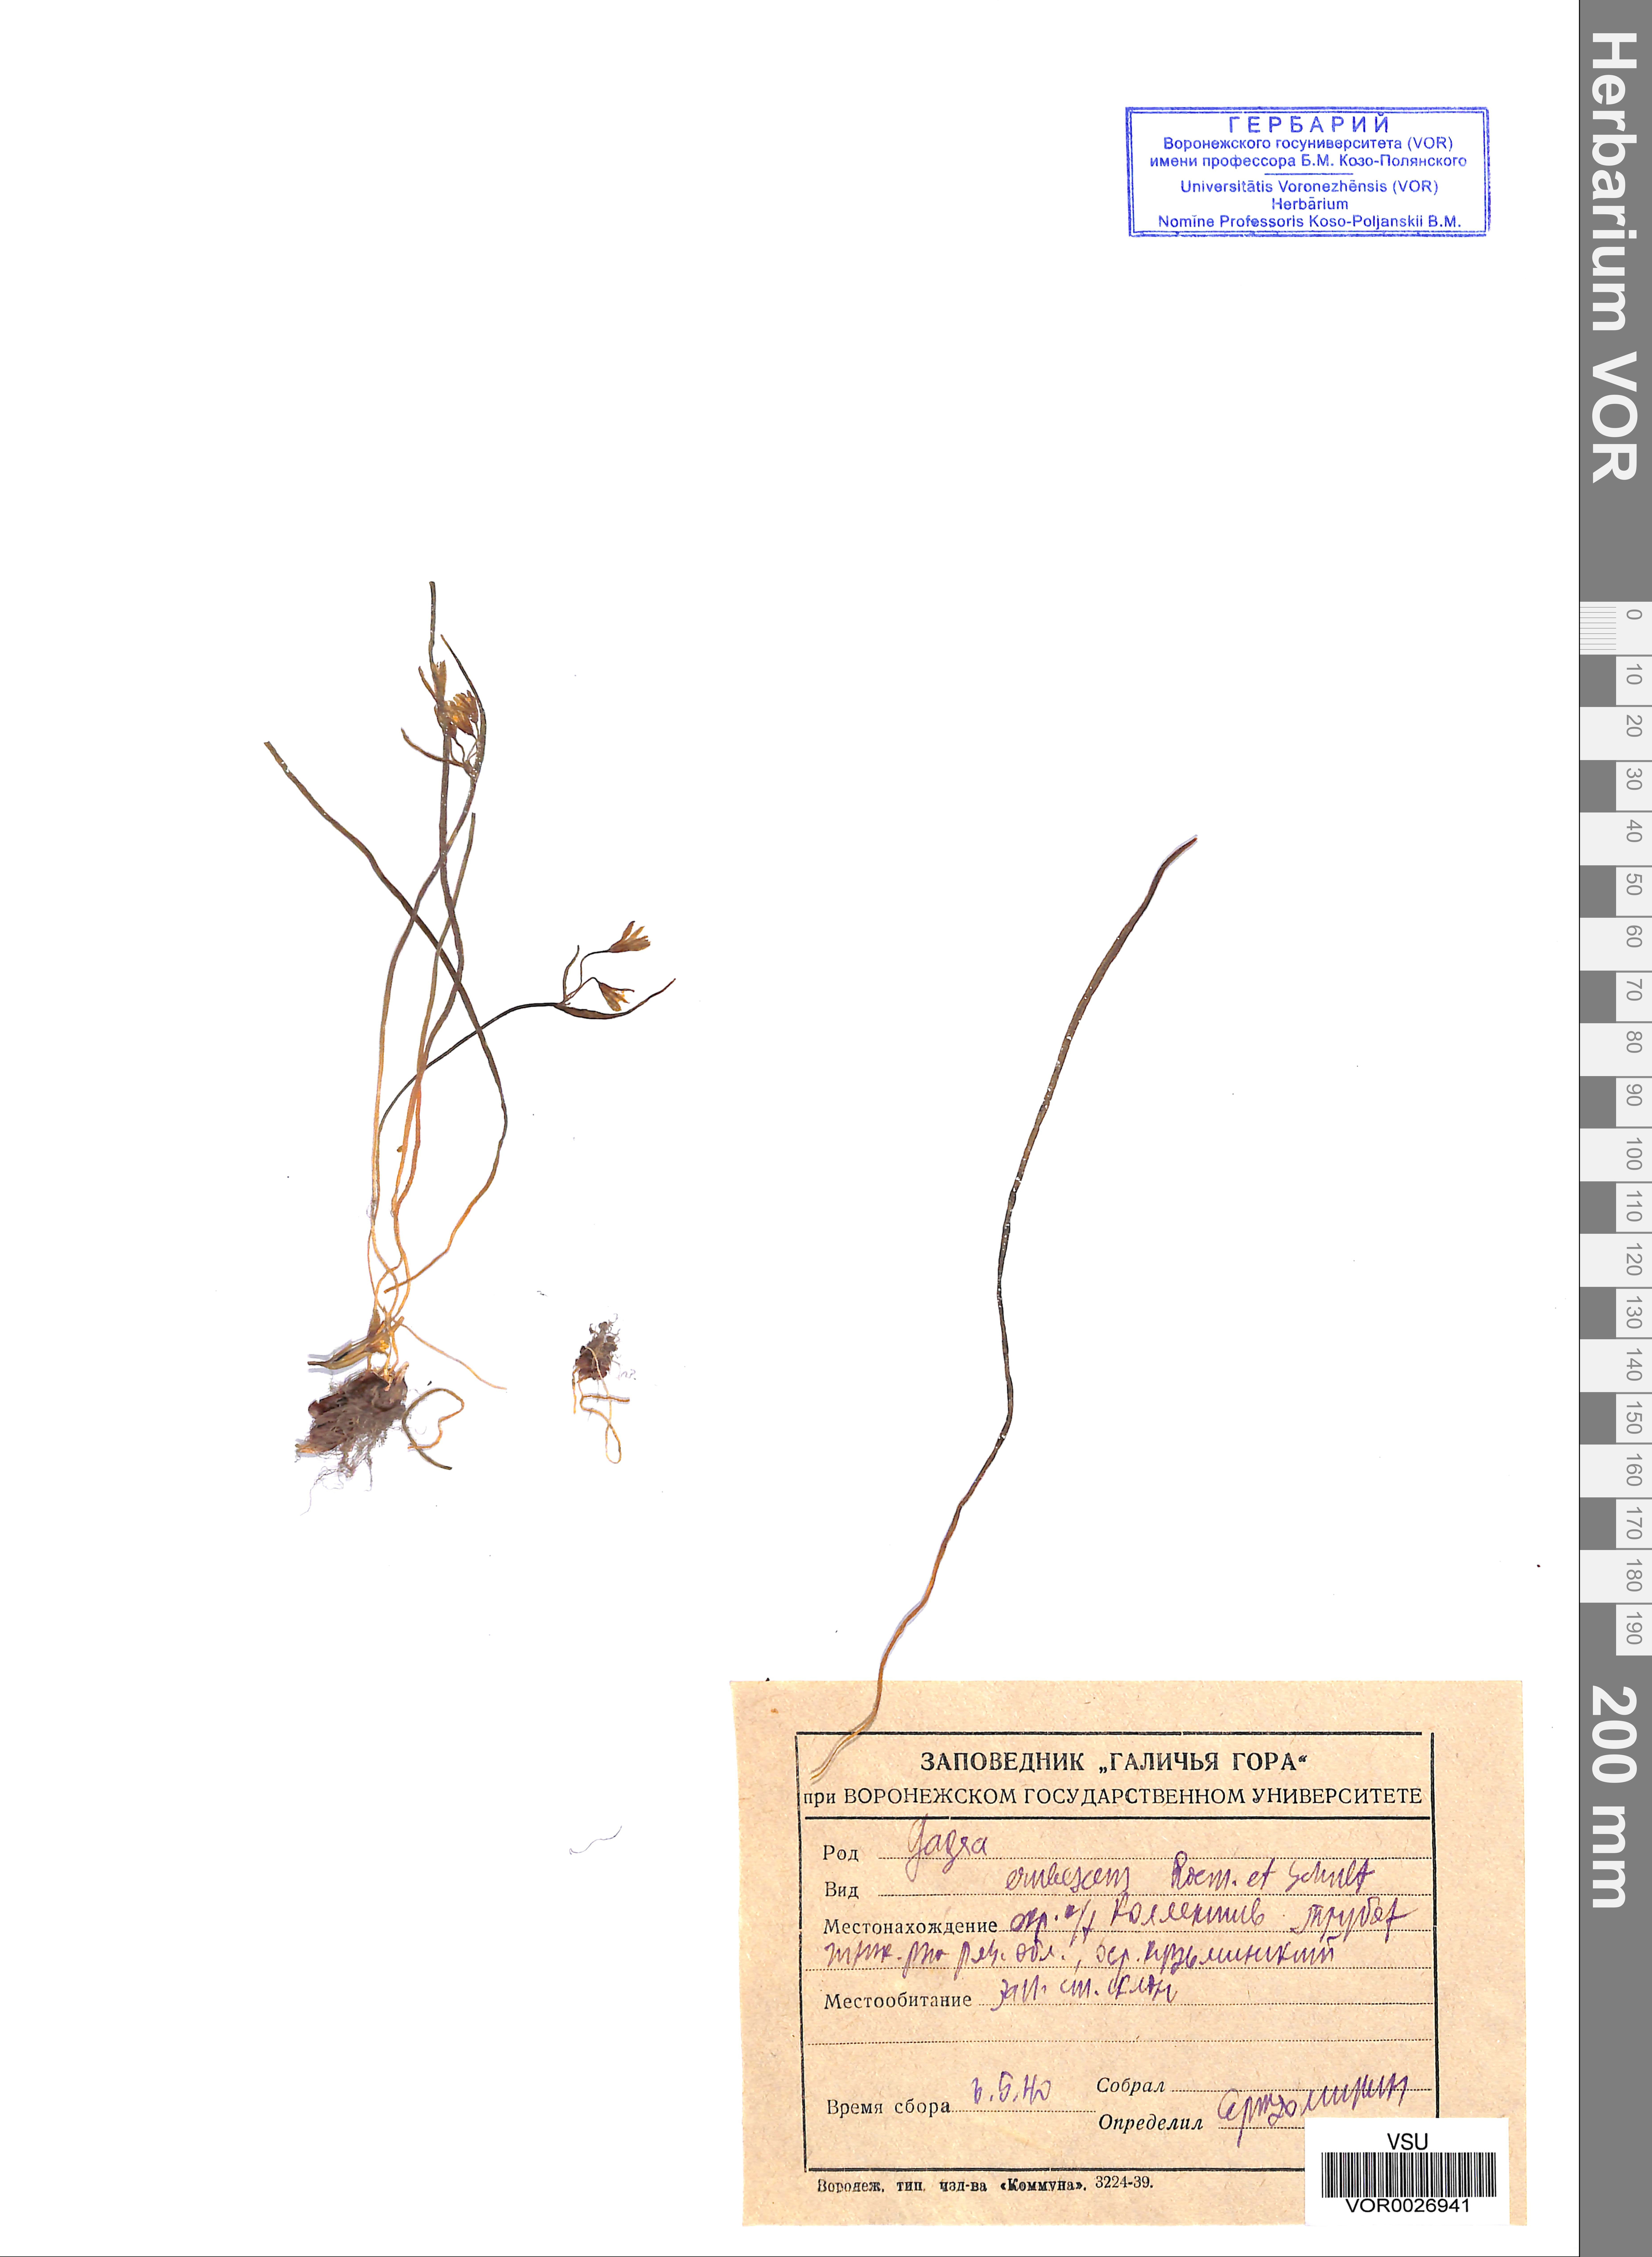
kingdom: Plantae
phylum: Tracheophyta
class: Liliopsida
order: Liliales
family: Liliaceae
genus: Gagea
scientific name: Gagea fragifera
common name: Lily
